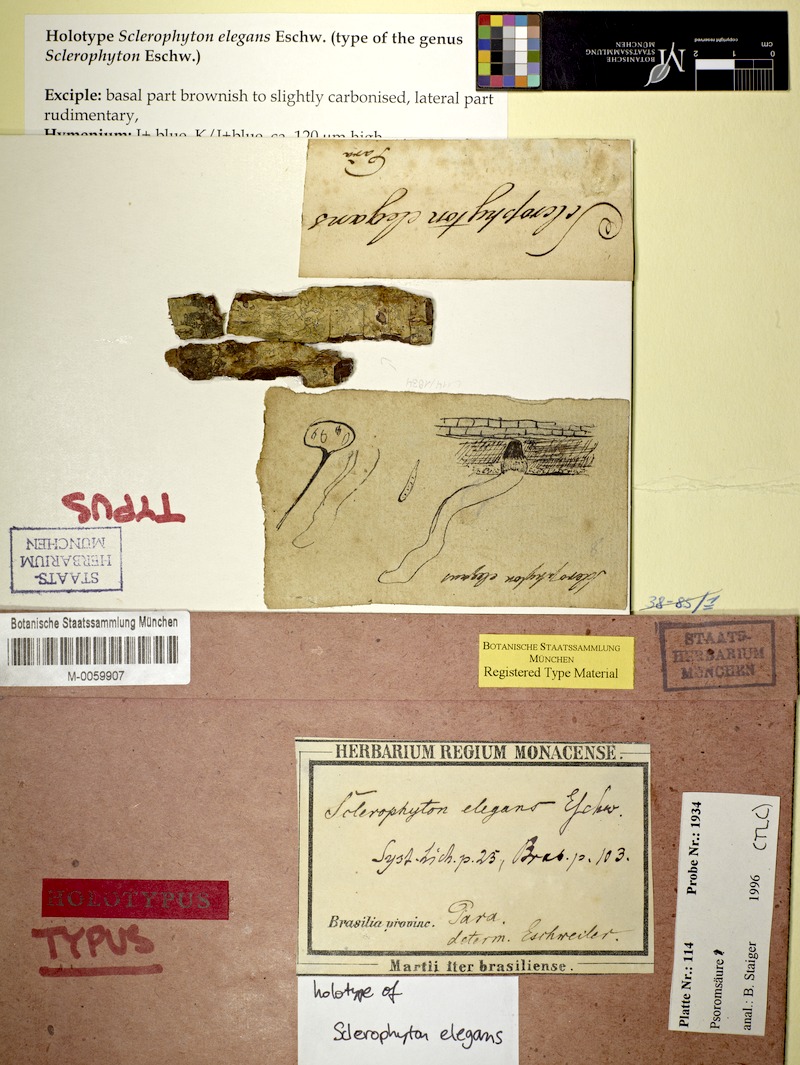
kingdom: Fungi
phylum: Ascomycota
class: Arthoniomycetes
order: Arthoniales
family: Opegraphaceae
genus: Sclerophyton
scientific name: Sclerophyton elegans
